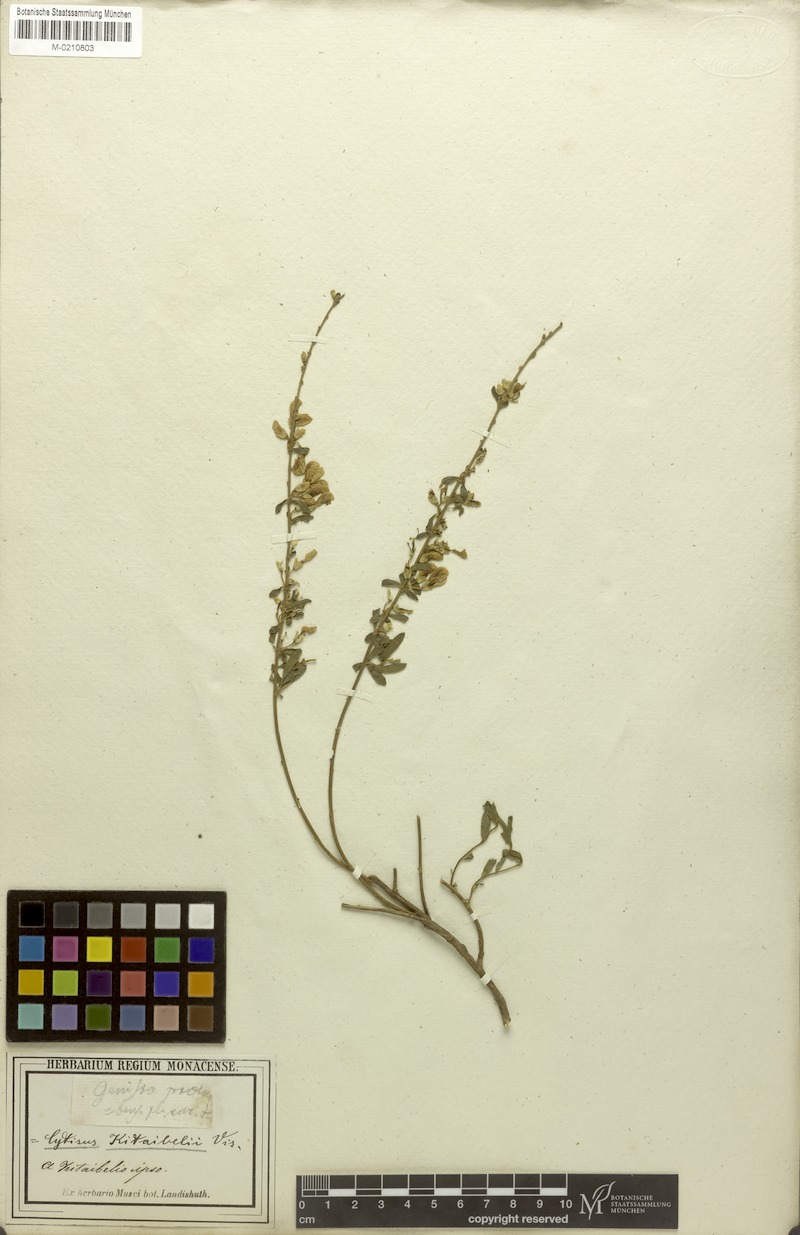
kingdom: Plantae
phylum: Tracheophyta
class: Magnoliopsida
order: Fabales
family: Fabaceae
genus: Cytisus
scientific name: Cytisus procumbens
